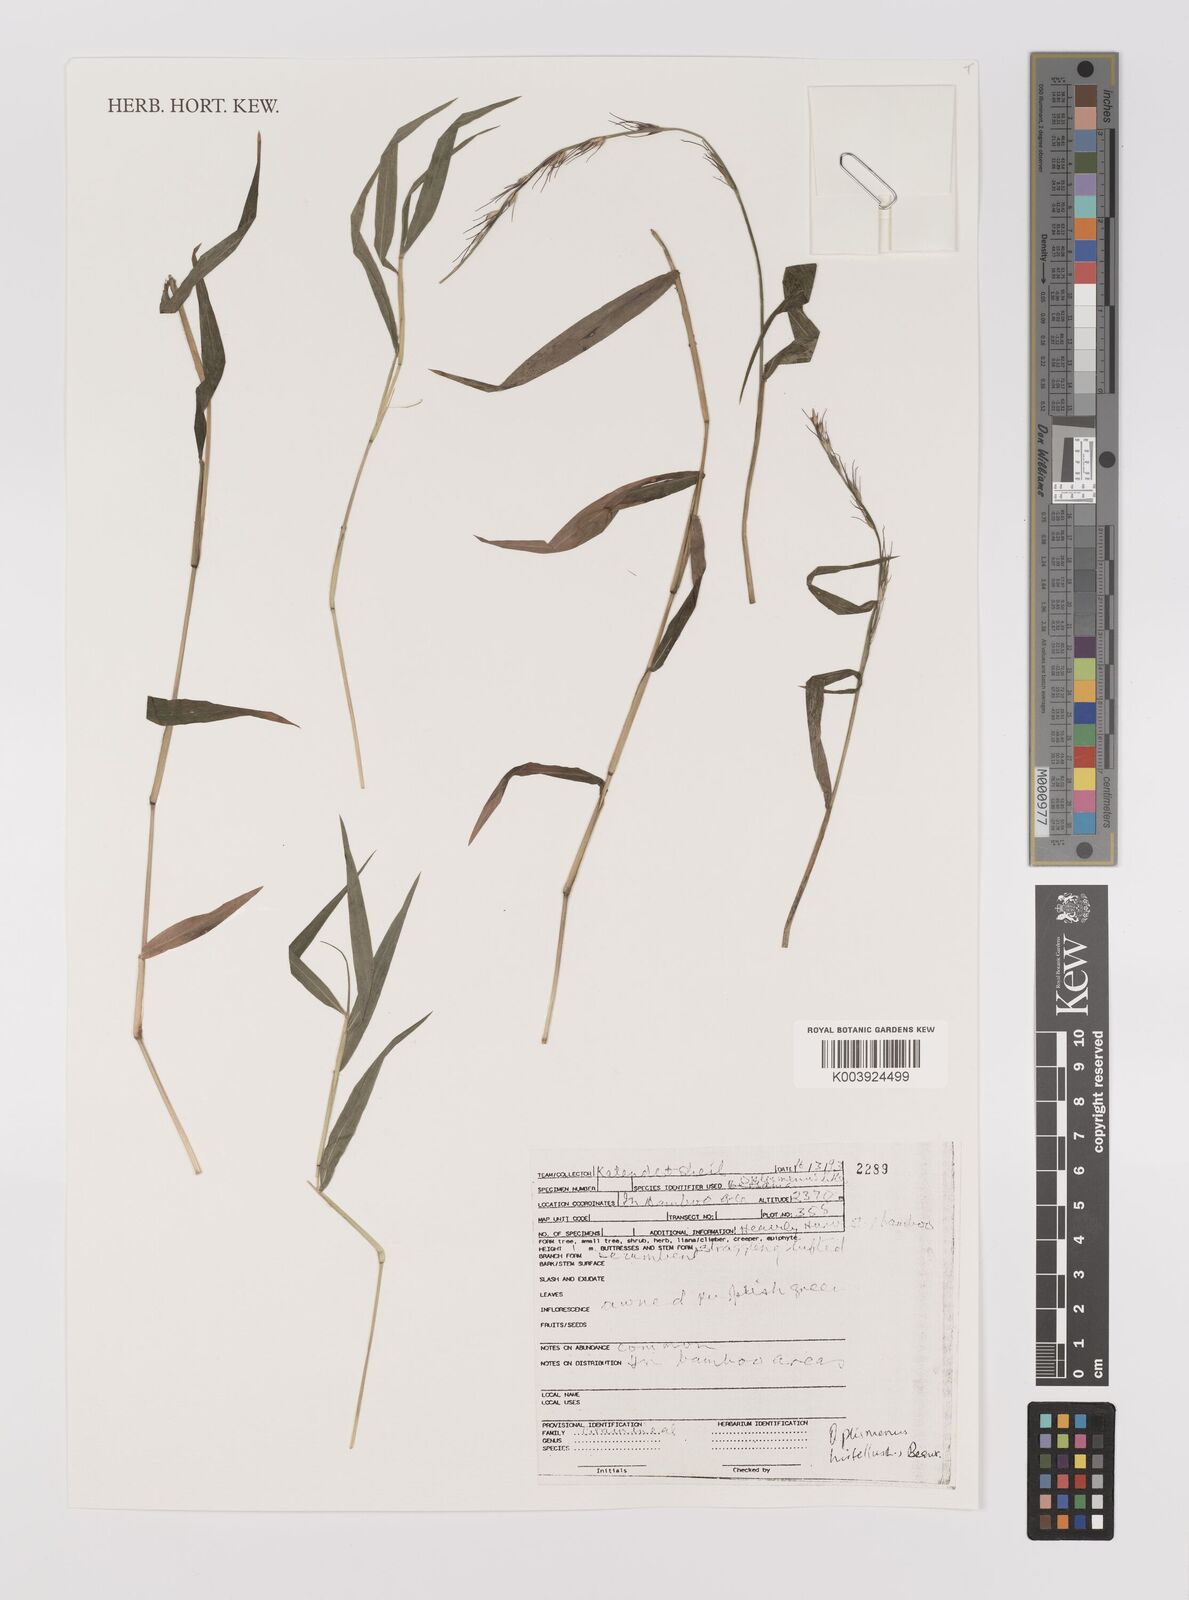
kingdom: Plantae
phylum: Tracheophyta
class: Liliopsida
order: Poales
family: Poaceae
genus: Oplismenus
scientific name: Oplismenus hirtellus
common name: Basketgrass
